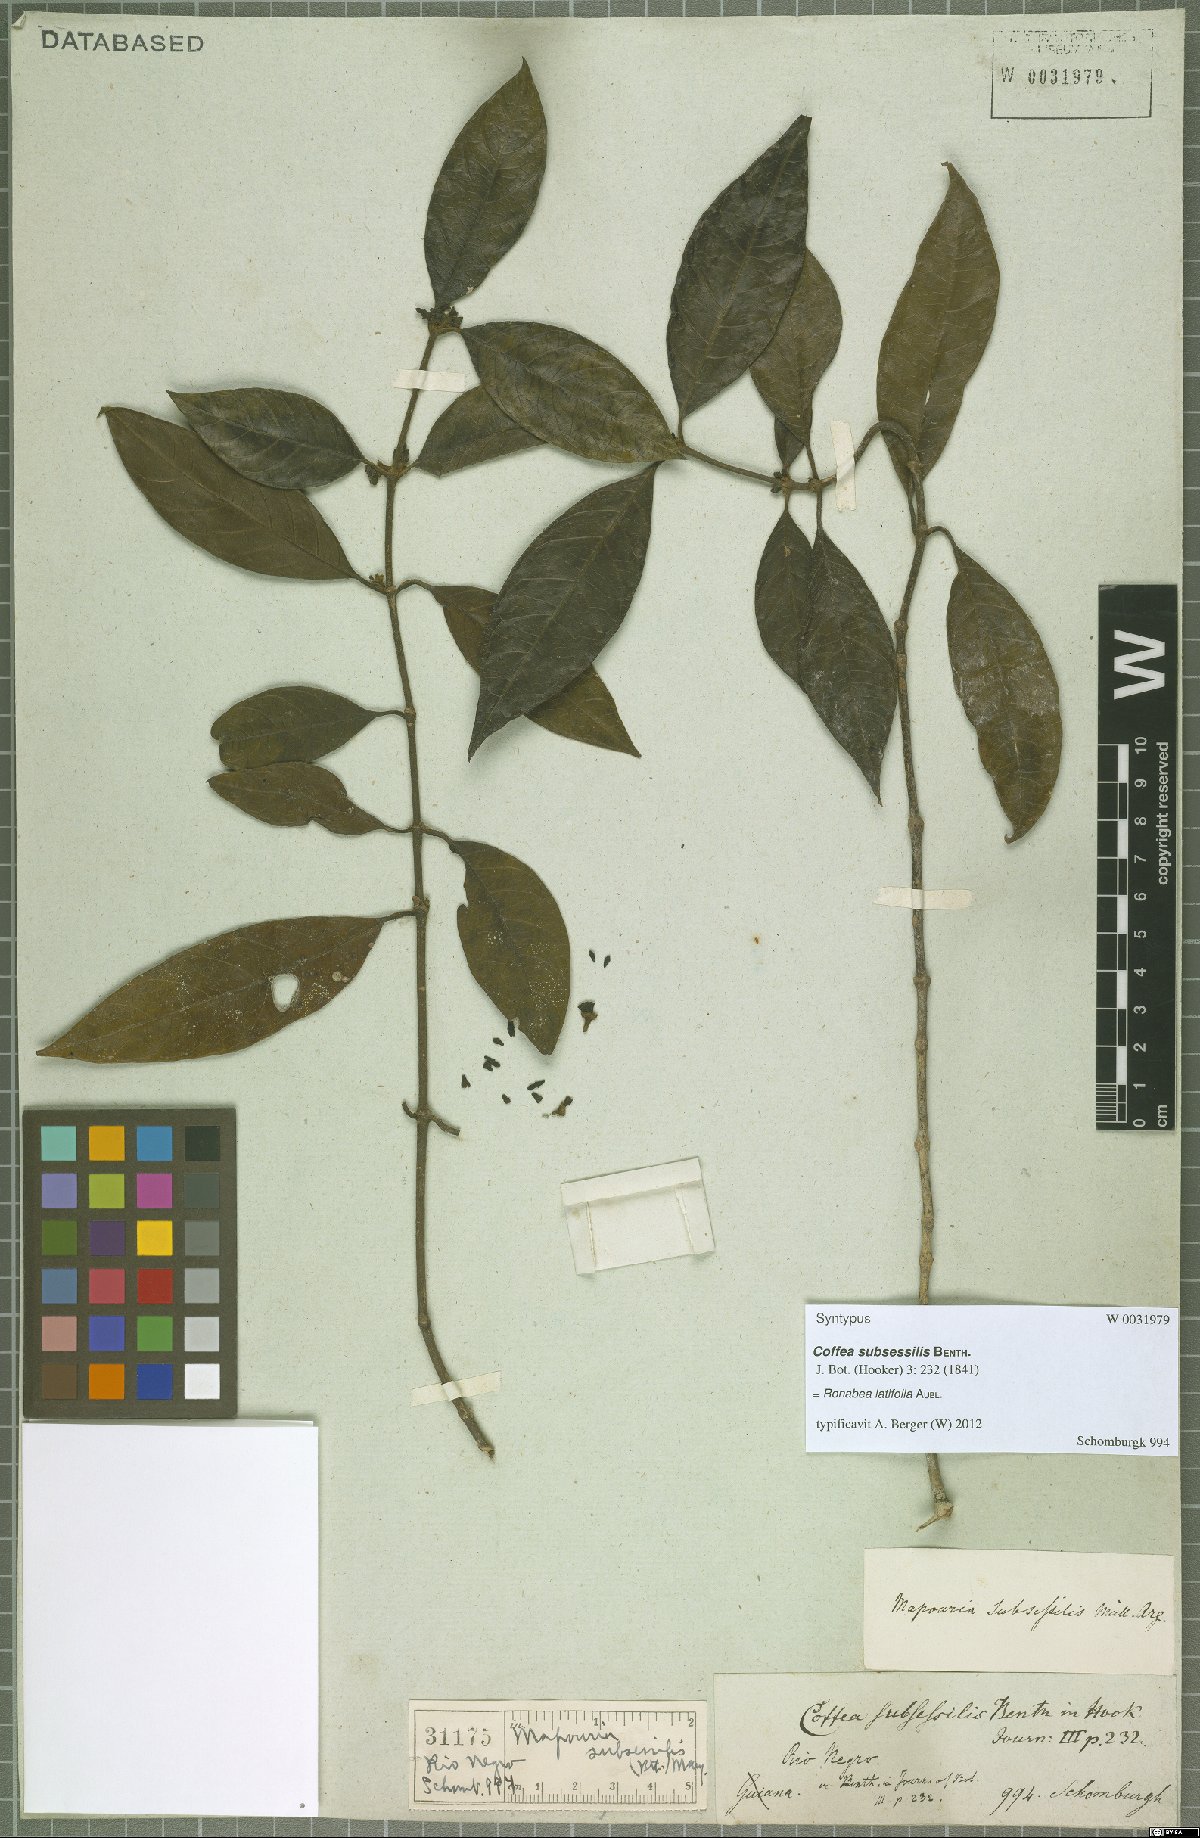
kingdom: Plantae
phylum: Tracheophyta
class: Magnoliopsida
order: Gentianales
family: Rubiaceae
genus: Ronabea
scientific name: Ronabea latifolia
